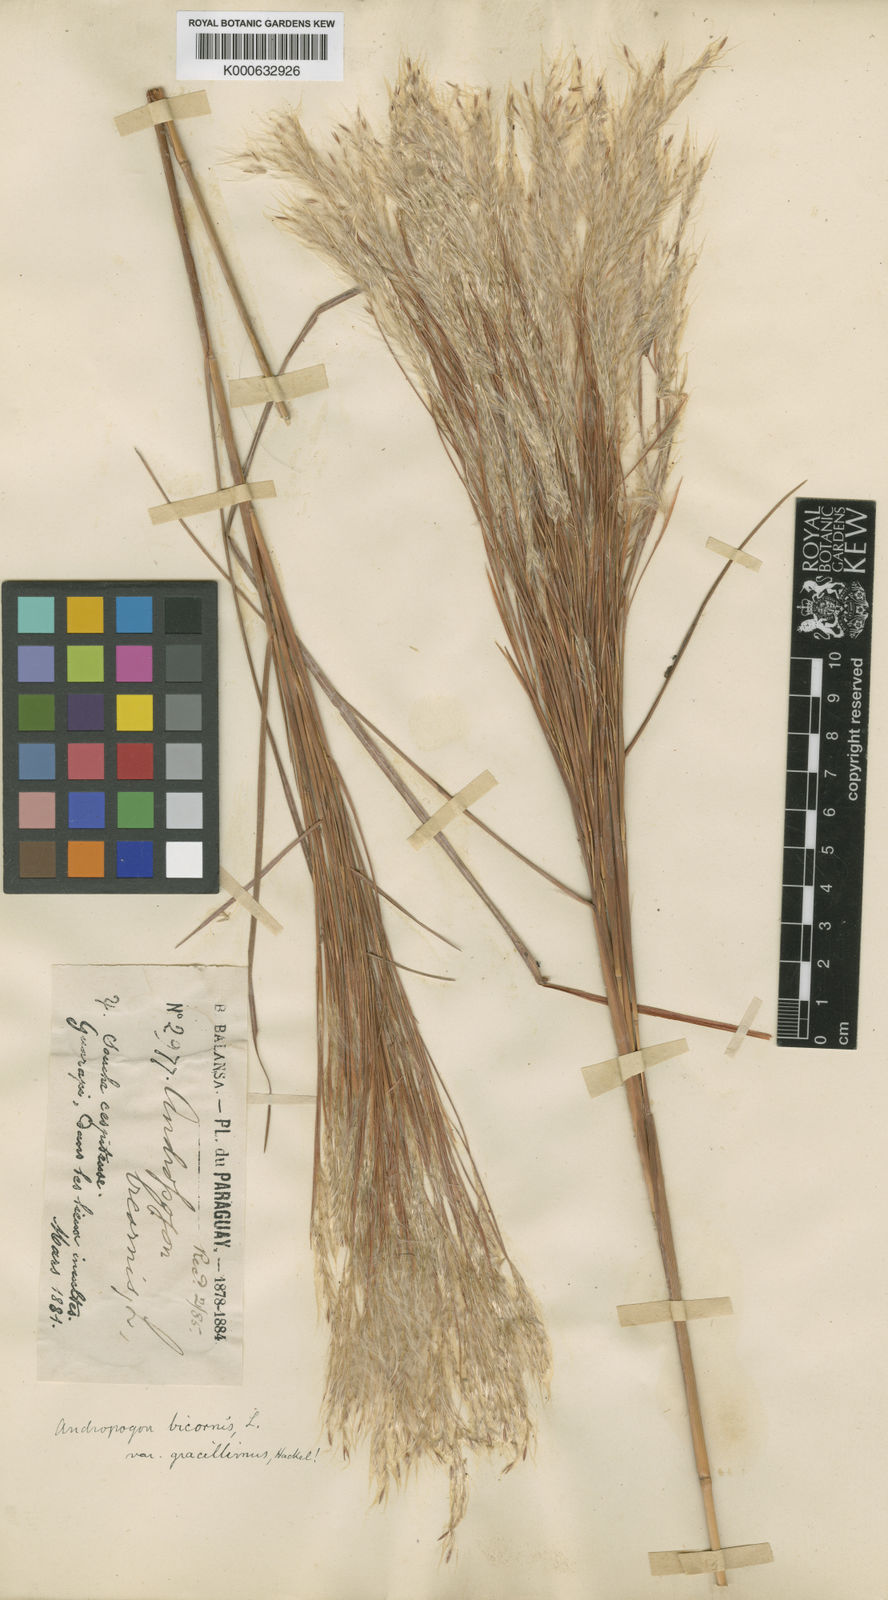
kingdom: Plantae
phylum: Tracheophyta
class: Liliopsida
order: Poales
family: Poaceae
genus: Andropogon
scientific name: Andropogon bicornis
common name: West indian foxtail grass
